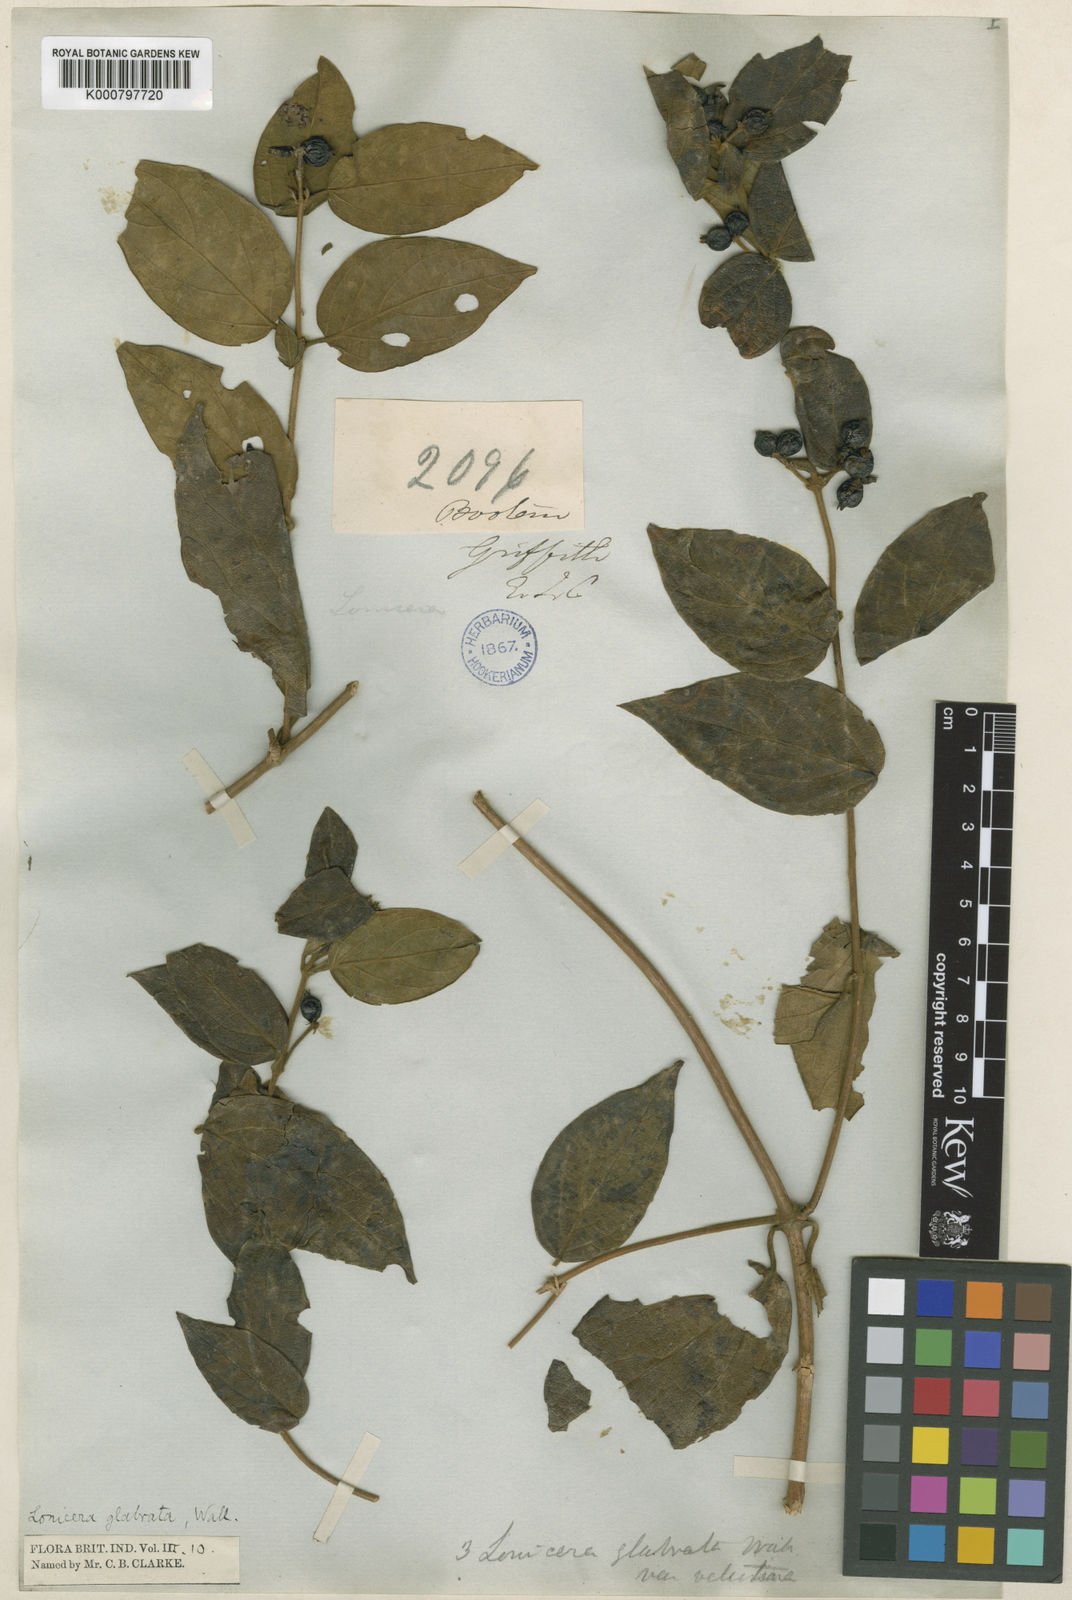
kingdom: Plantae
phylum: Tracheophyta
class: Magnoliopsida
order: Dipsacales
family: Caprifoliaceae
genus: Lonicera
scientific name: Lonicera glabrata
